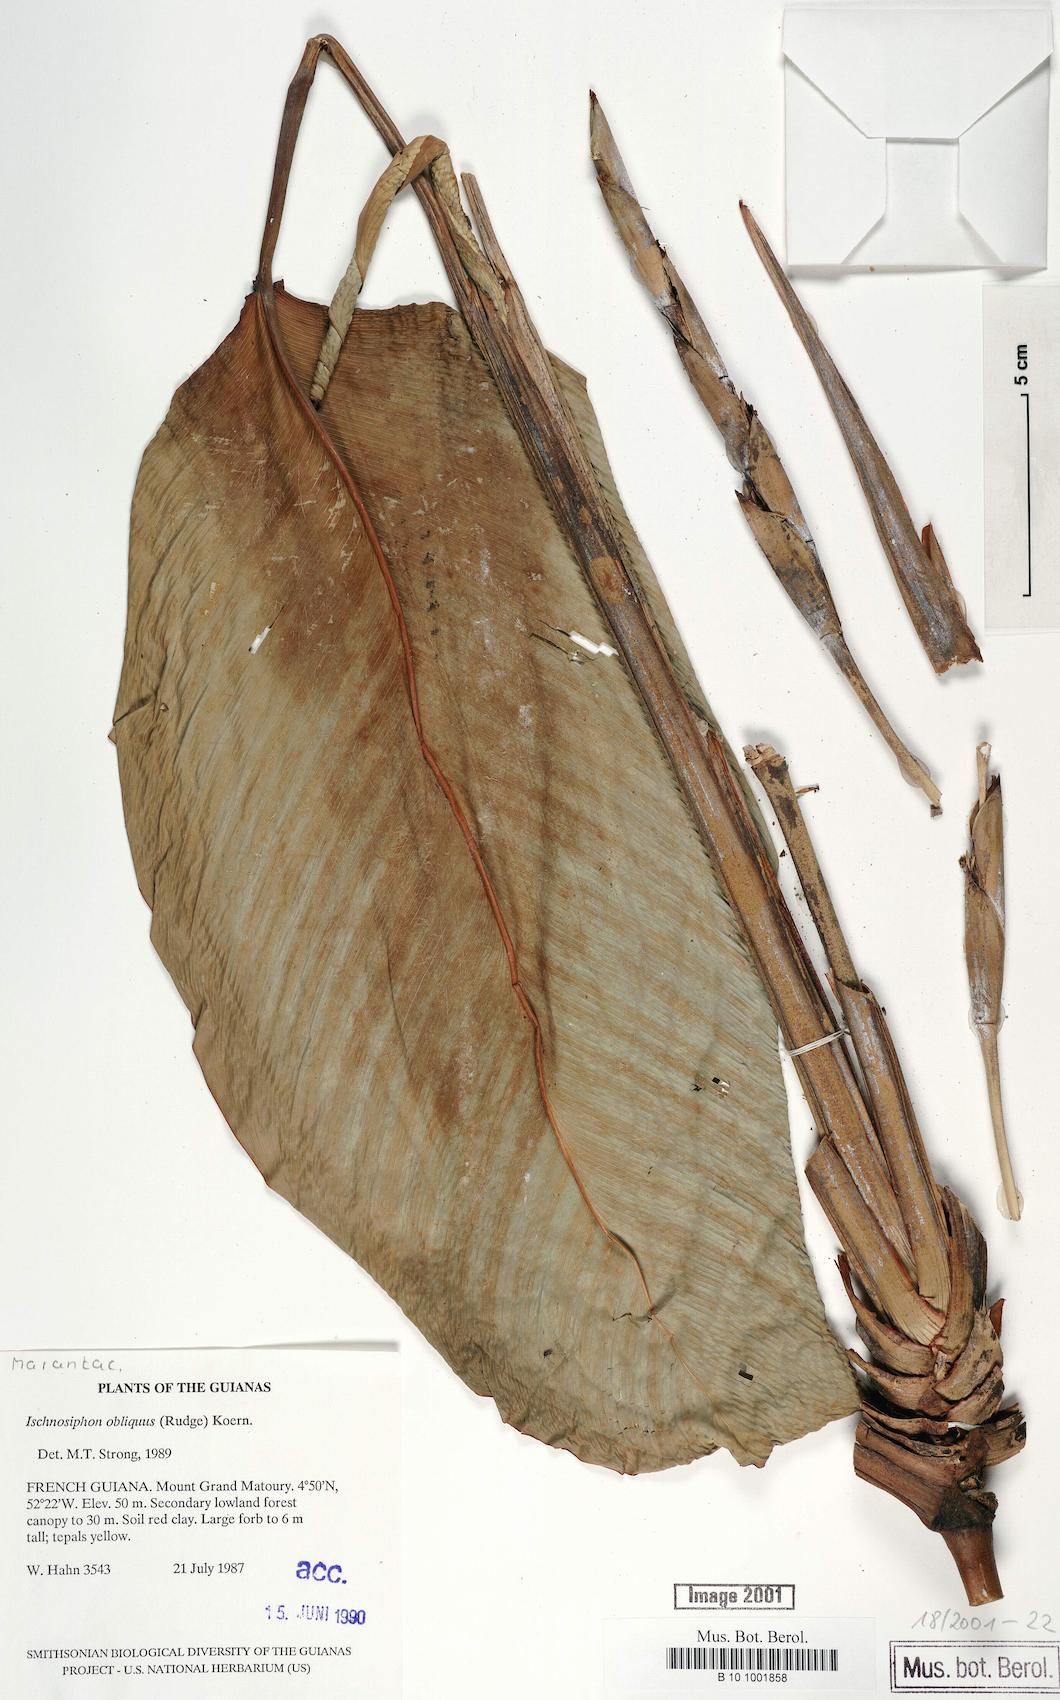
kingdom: Plantae
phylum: Tracheophyta
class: Liliopsida
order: Zingiberales
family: Marantaceae
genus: Ischnosiphon
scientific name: Ischnosiphon obliquus
